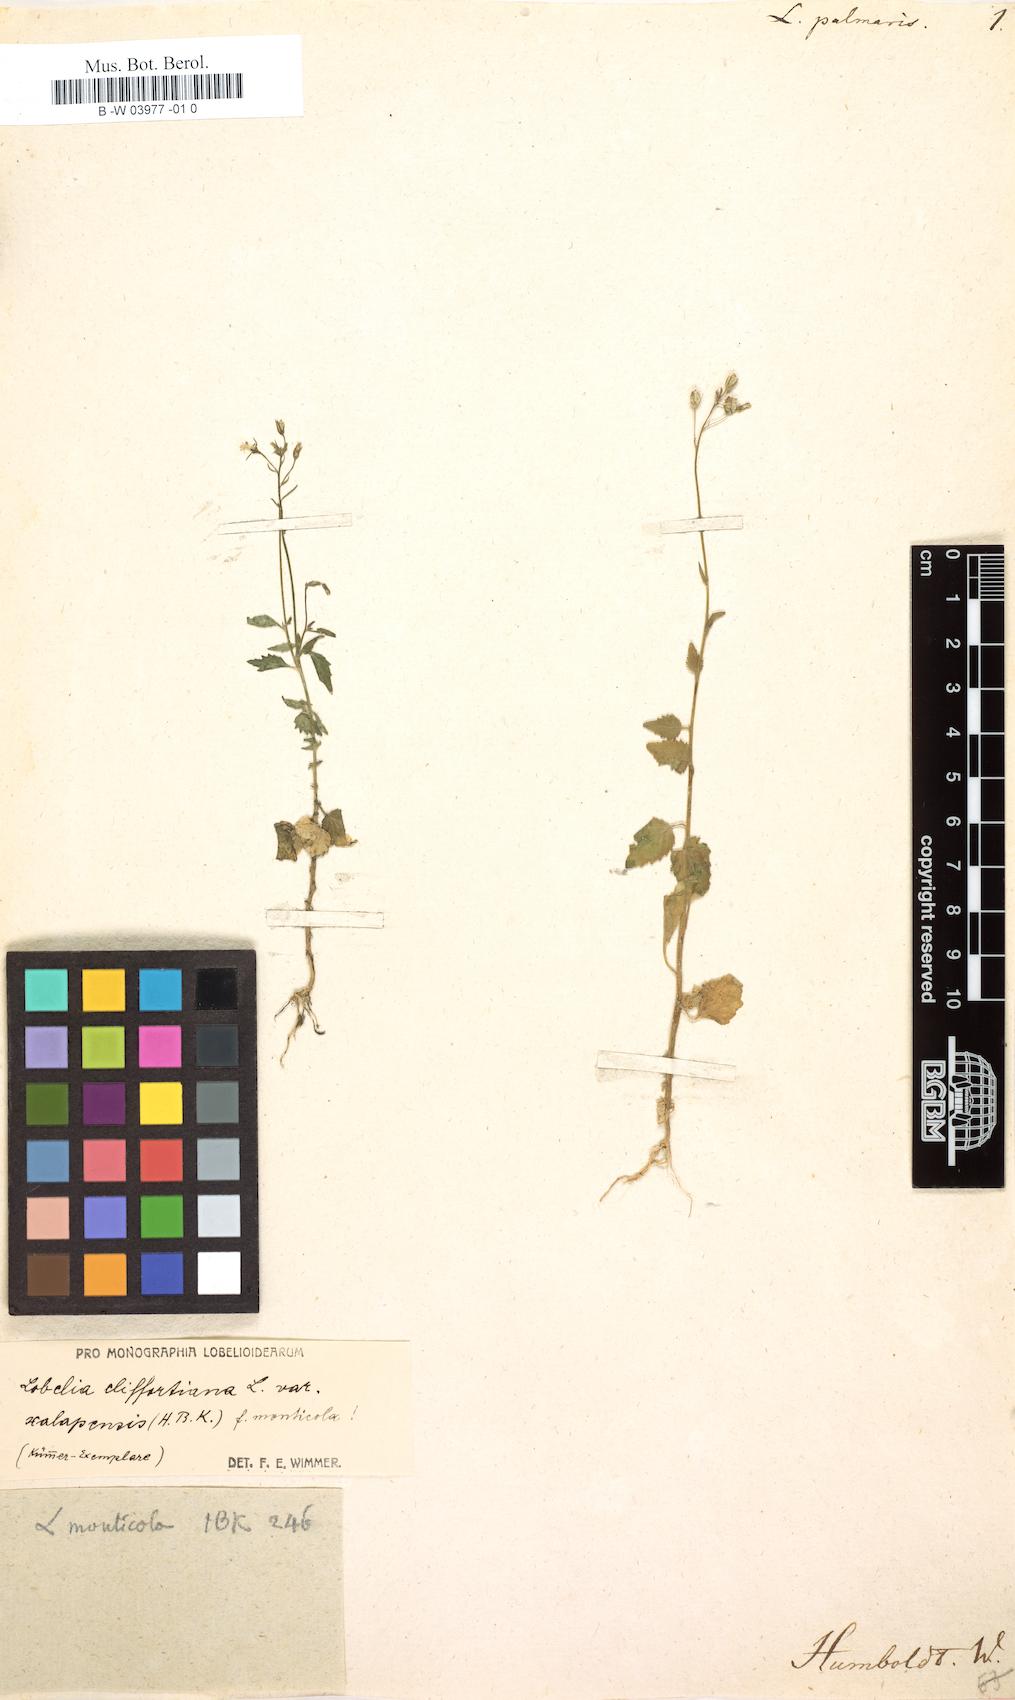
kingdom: Plantae
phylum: Tracheophyta
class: Magnoliopsida
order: Asterales
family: Campanulaceae
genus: Lobelia
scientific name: Lobelia xalapensis
